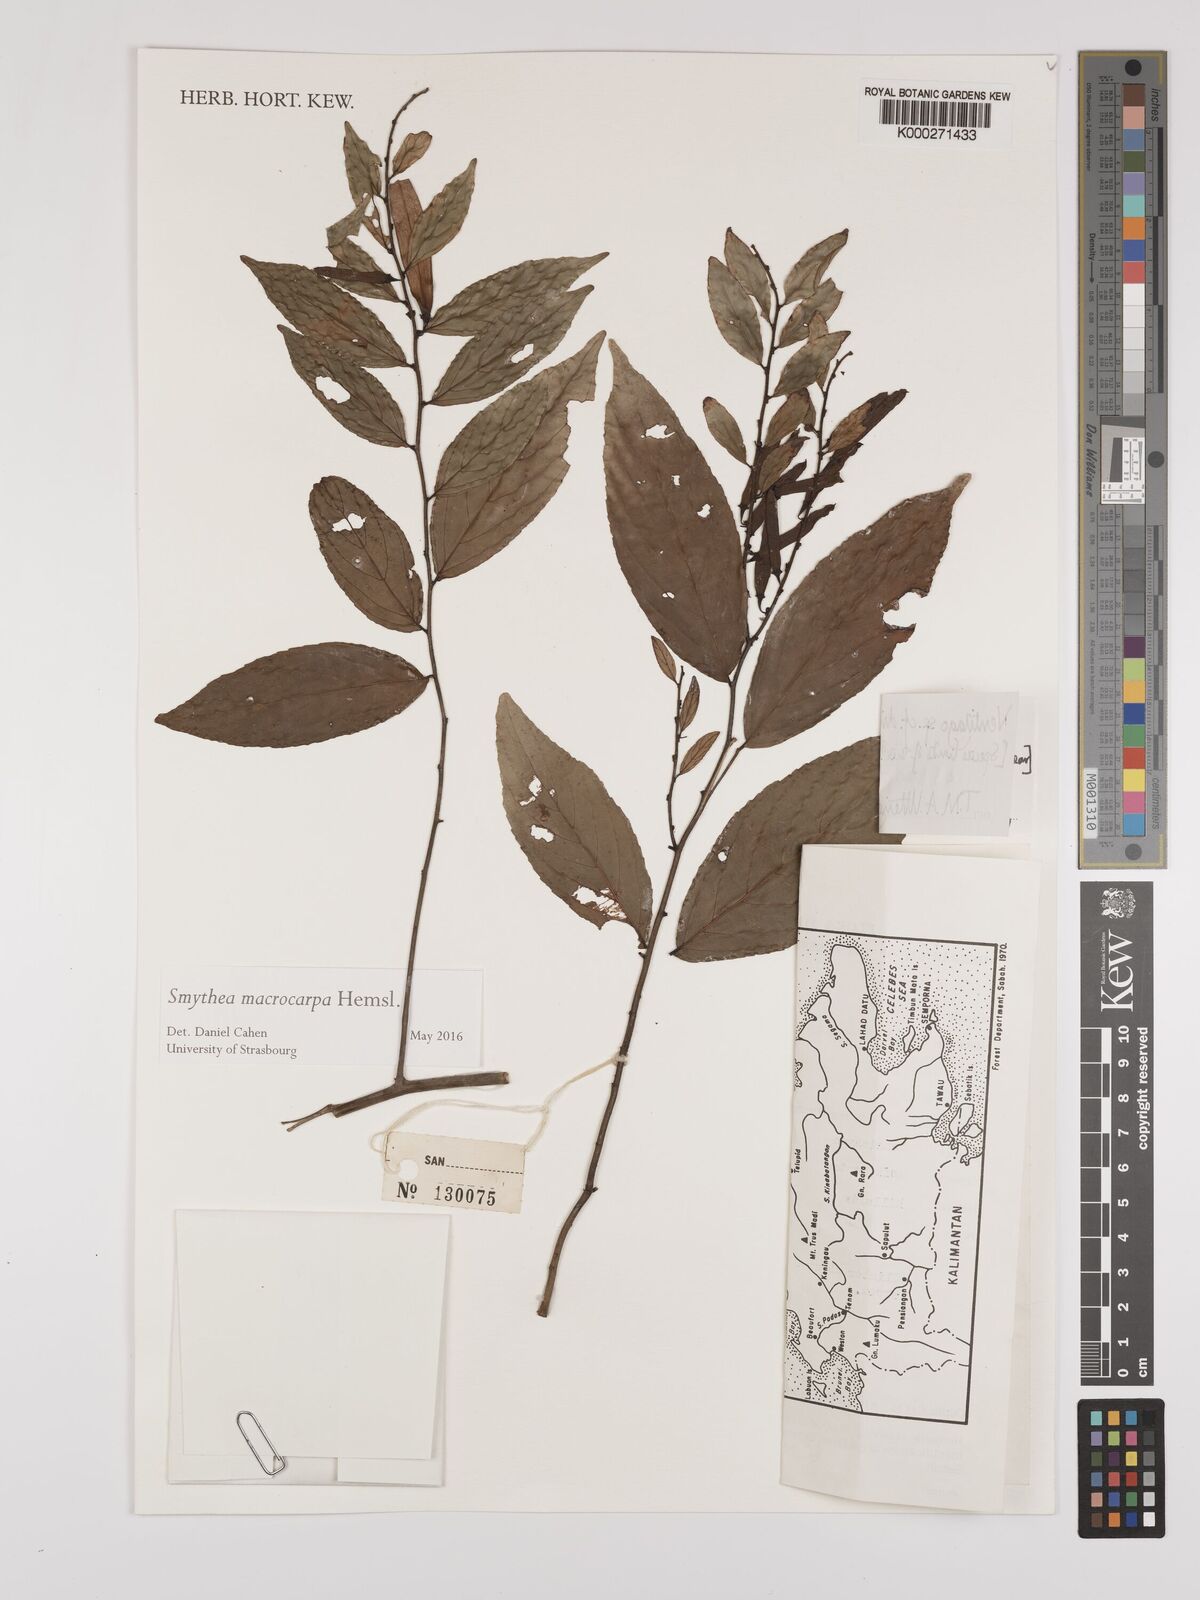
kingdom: Plantae
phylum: Tracheophyta
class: Magnoliopsida
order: Rosales
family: Rhamnaceae
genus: Ventilago
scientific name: Ventilago
